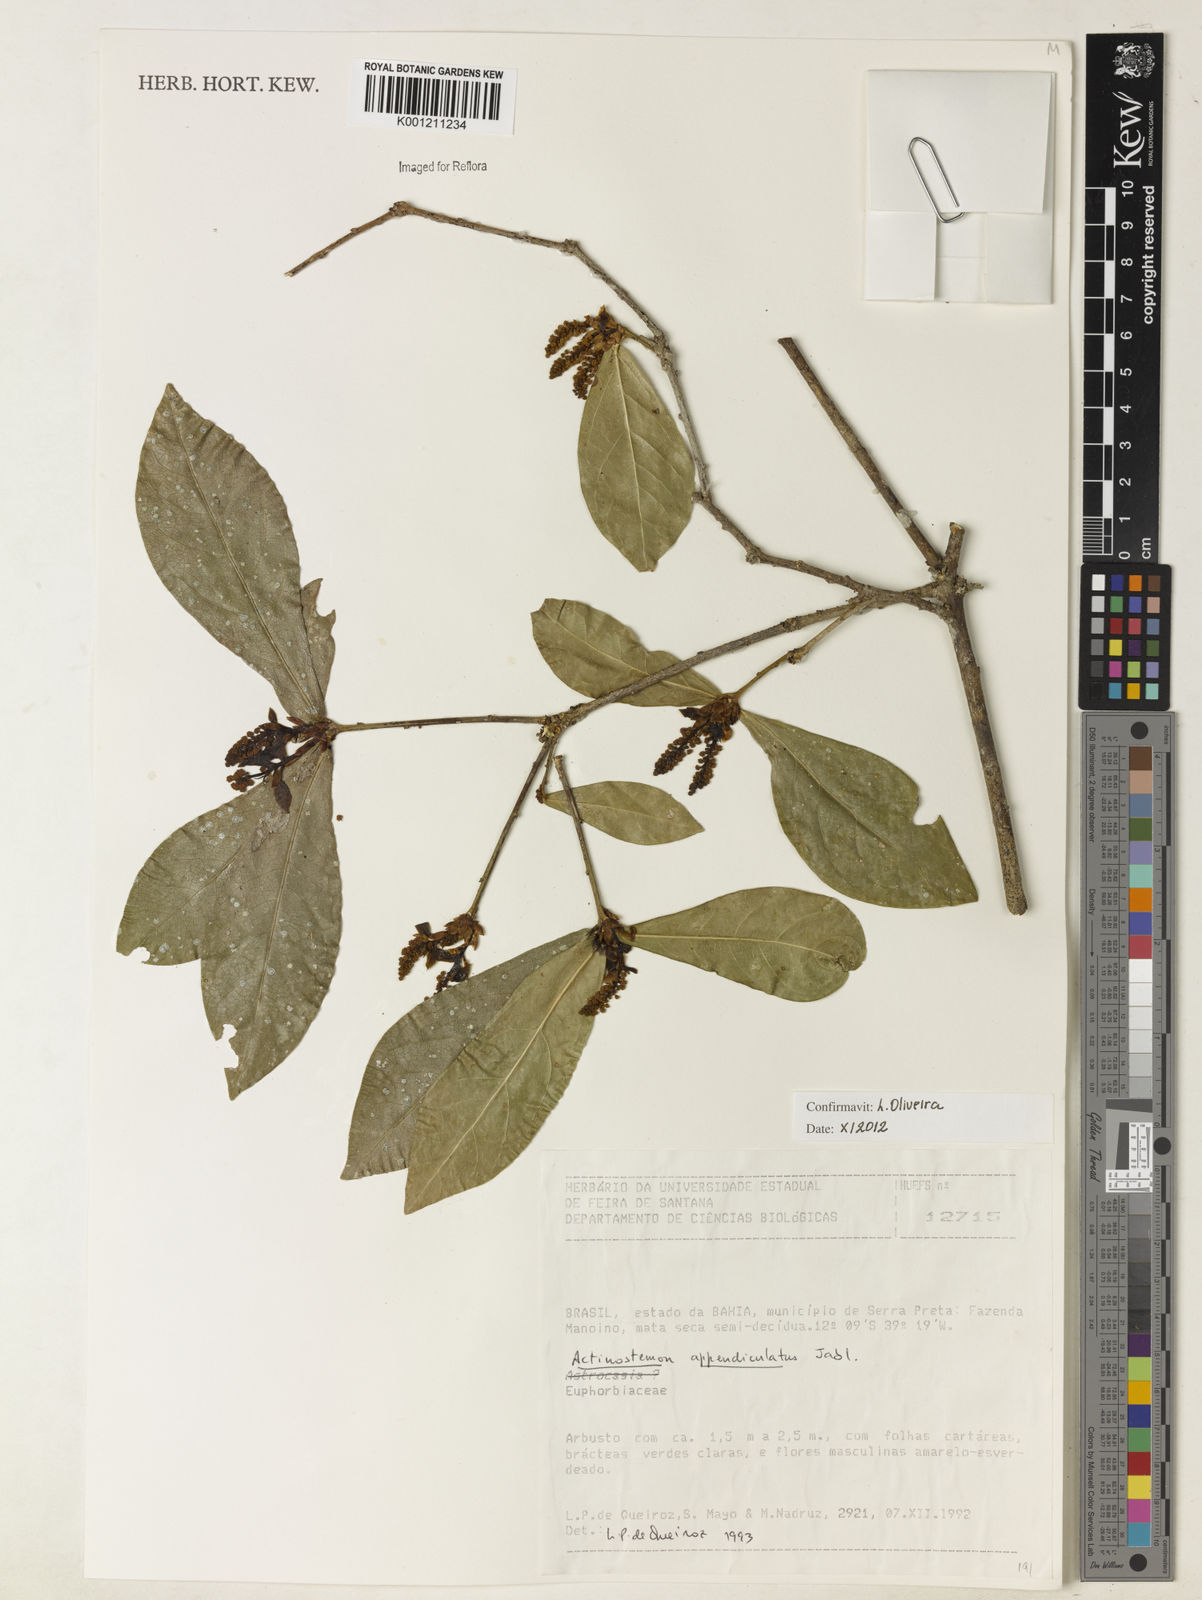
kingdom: Plantae
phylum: Tracheophyta
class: Magnoliopsida
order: Malpighiales
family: Euphorbiaceae
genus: Actinostemon
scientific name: Actinostemon lasiocarpus
